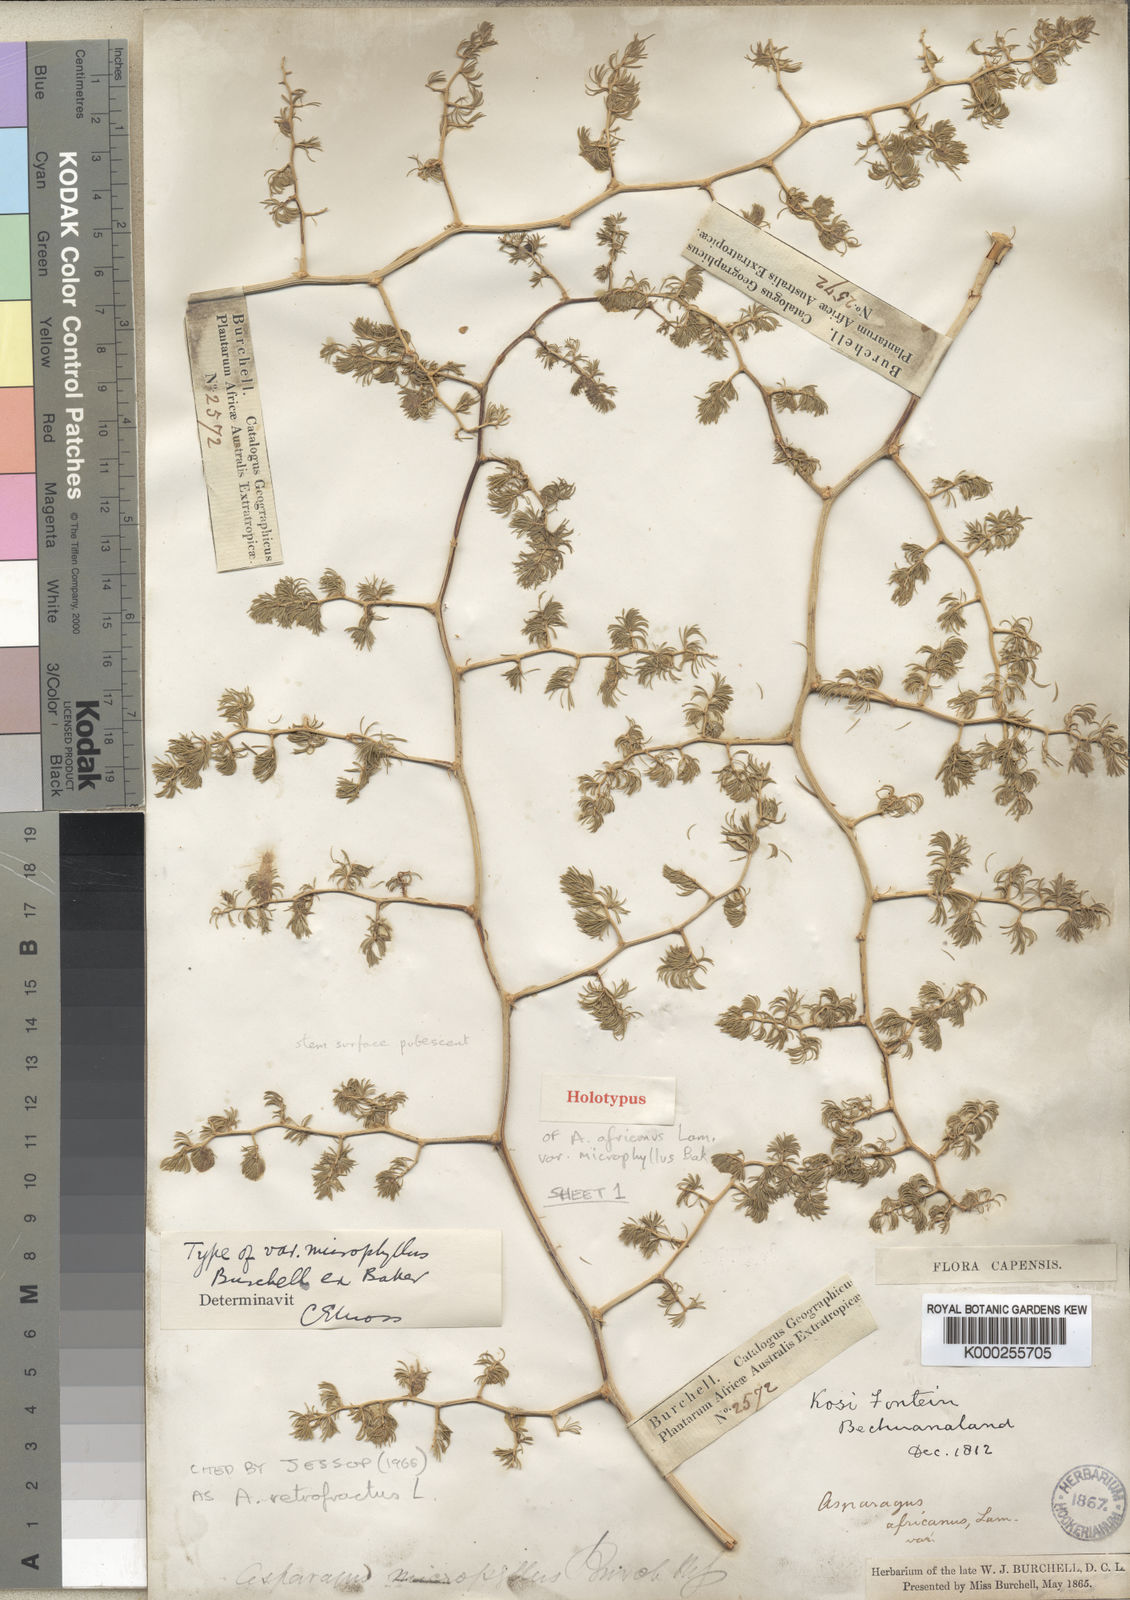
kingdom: Plantae
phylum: Tracheophyta
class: Liliopsida
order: Asparagales
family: Asparagaceae
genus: Asparagus
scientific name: Asparagus retrofractus
